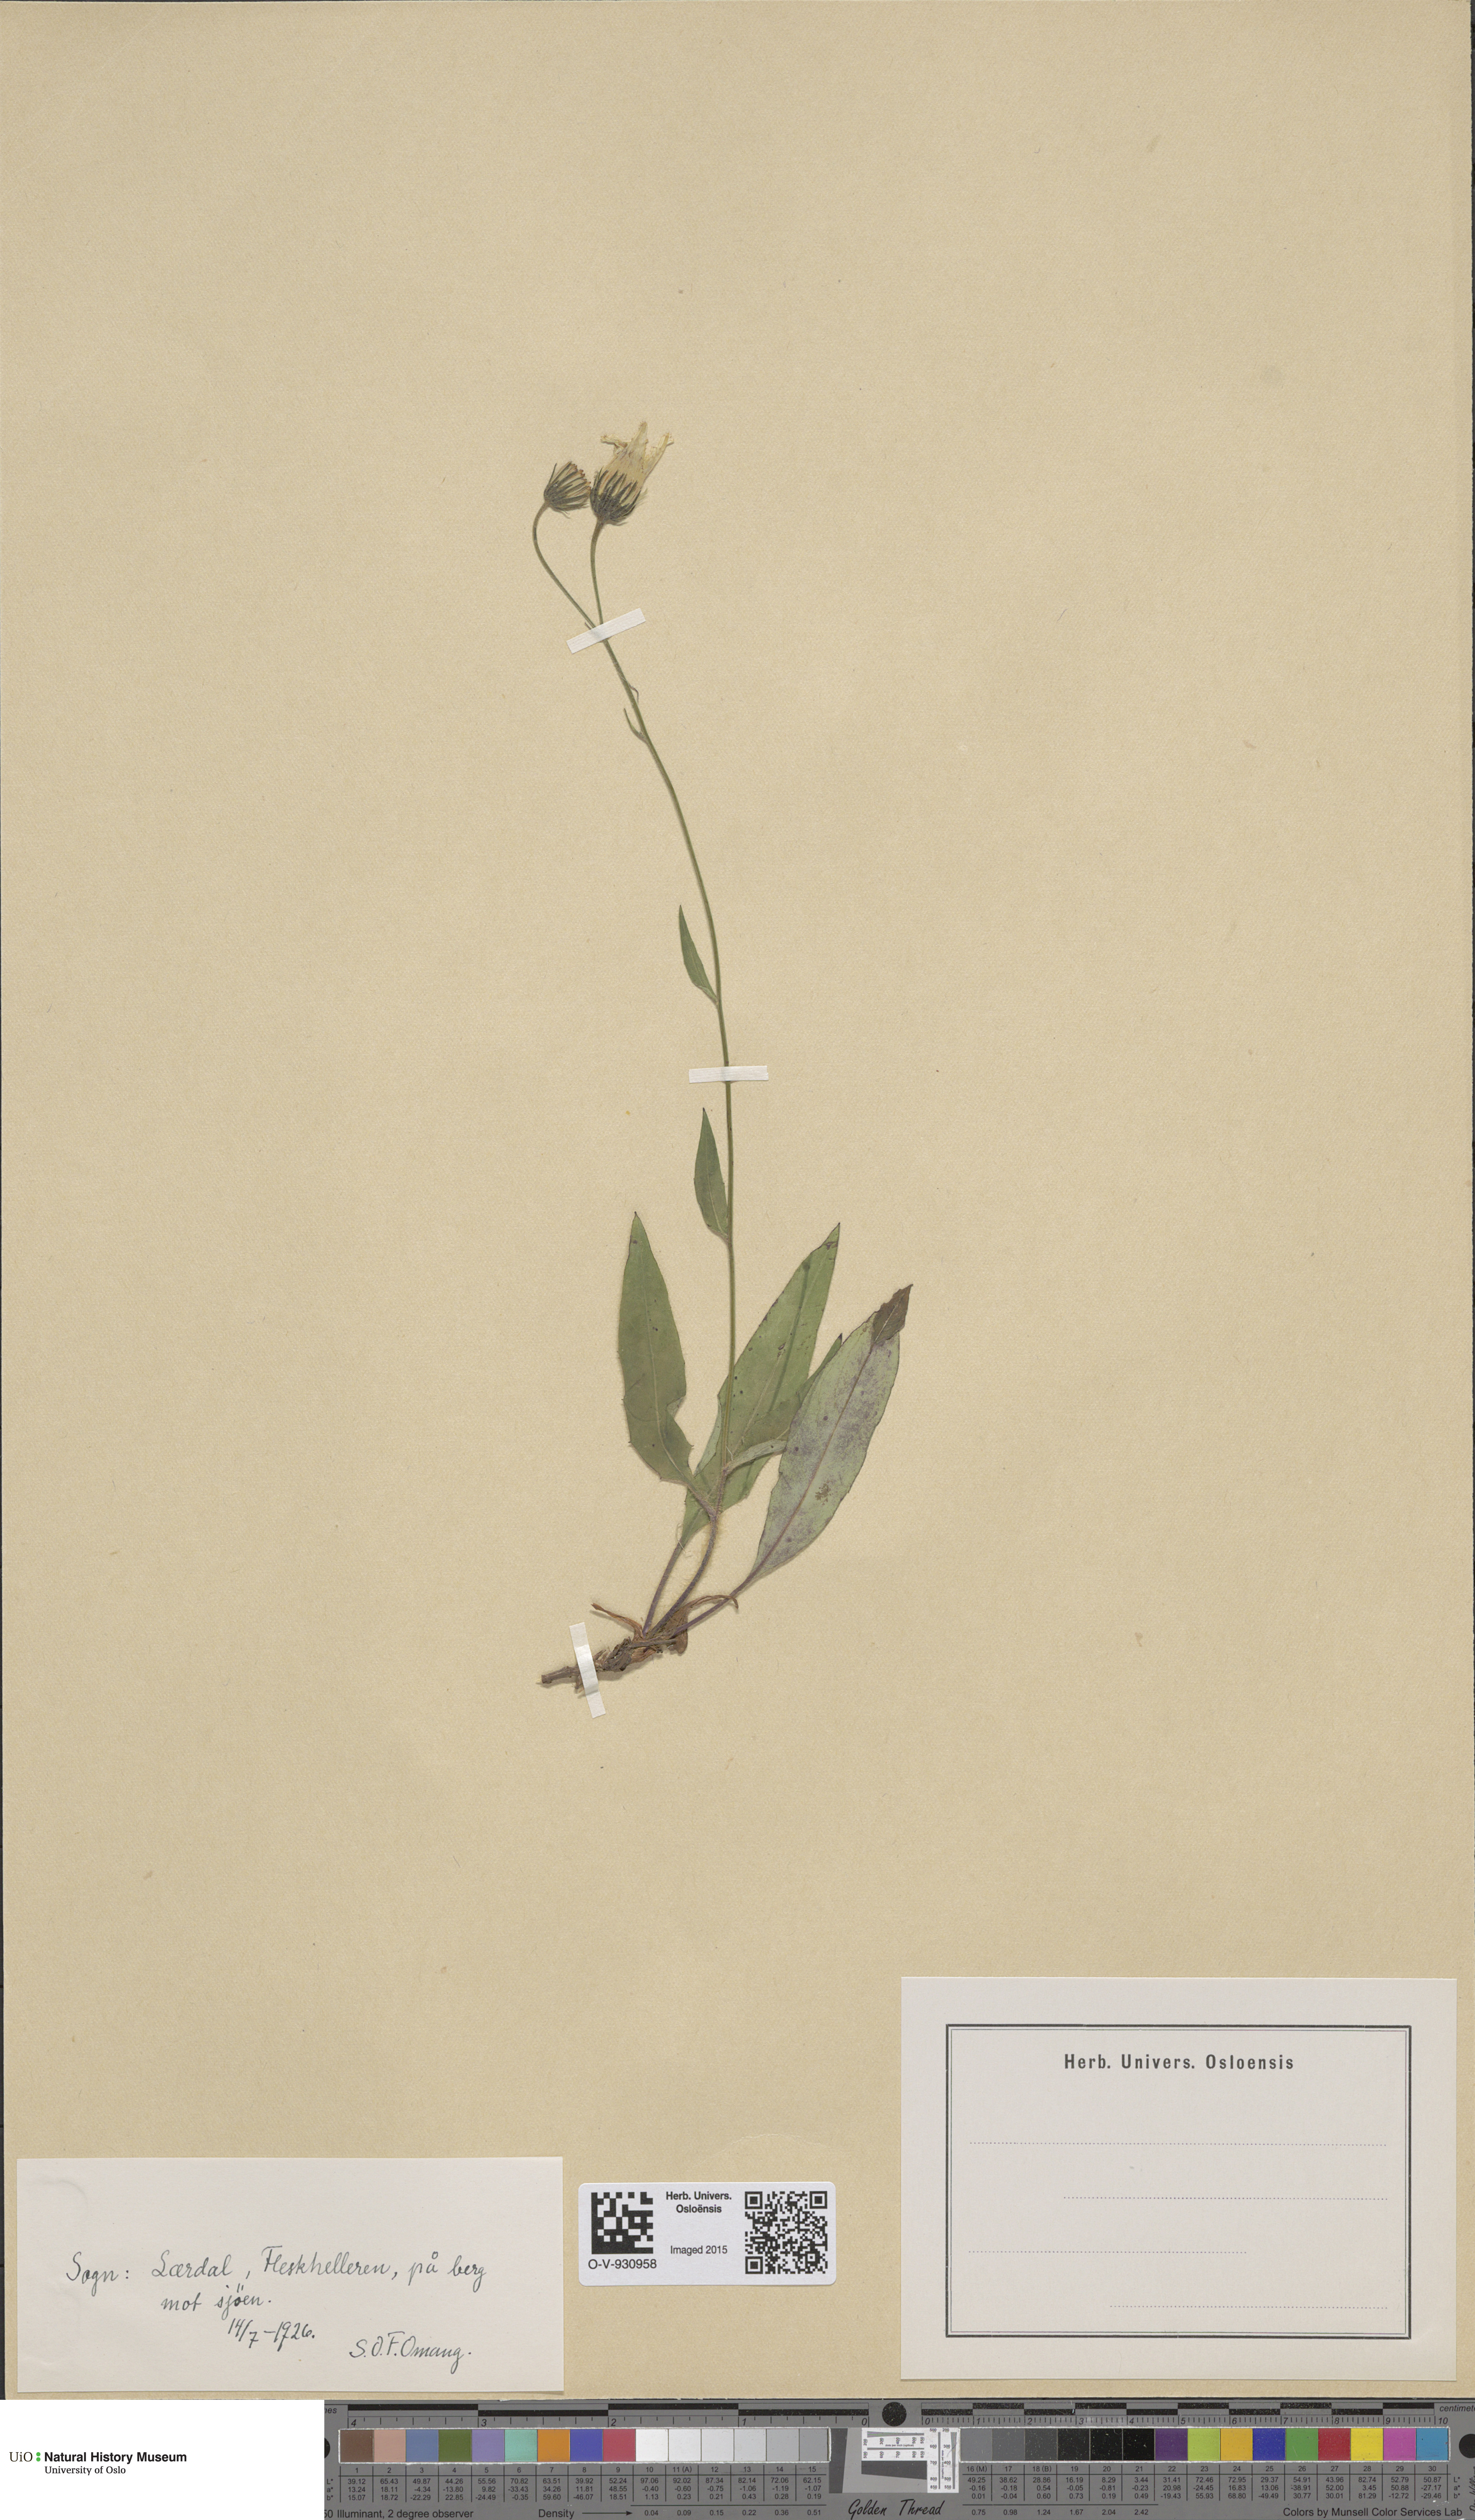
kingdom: Plantae
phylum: Tracheophyta
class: Magnoliopsida
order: Asterales
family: Asteraceae
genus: Hieracium
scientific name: Hieracium saxifragum
